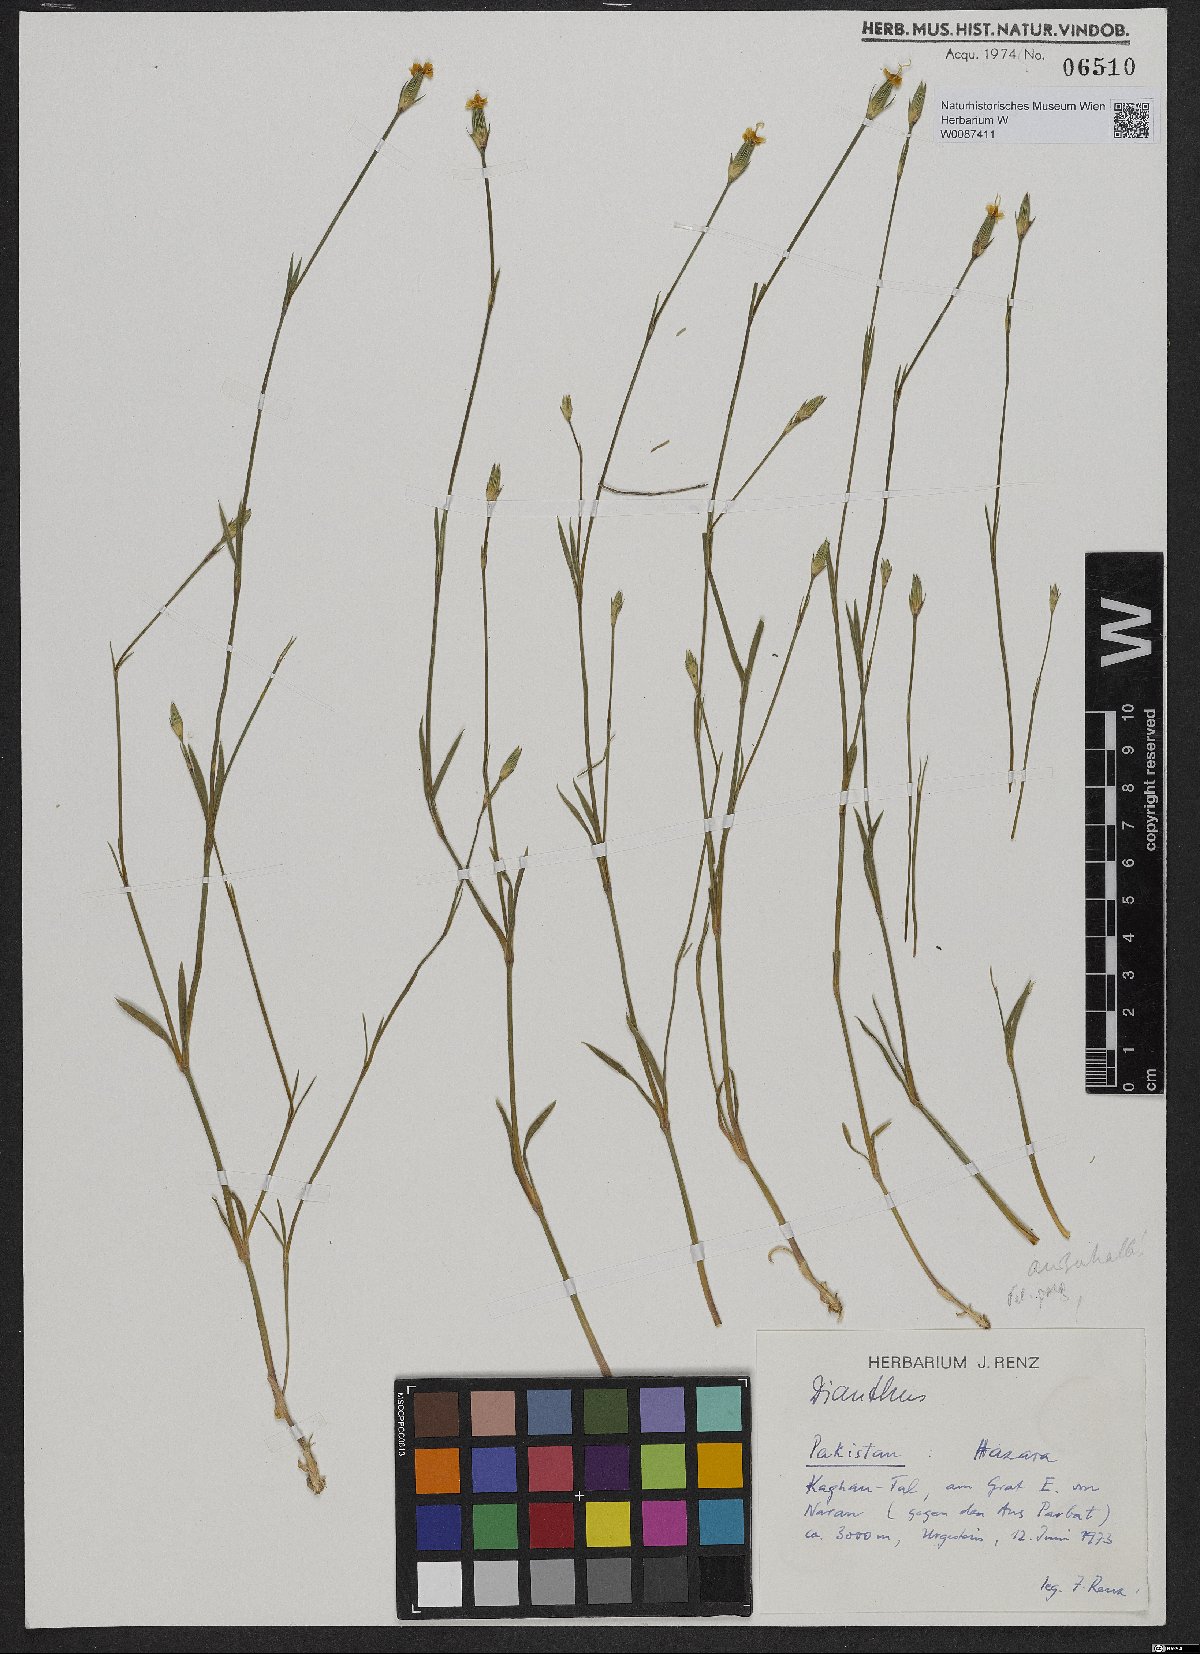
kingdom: Plantae
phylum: Tracheophyta
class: Magnoliopsida
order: Caryophyllales
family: Caryophyllaceae
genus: Dianthus
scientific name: Dianthus
